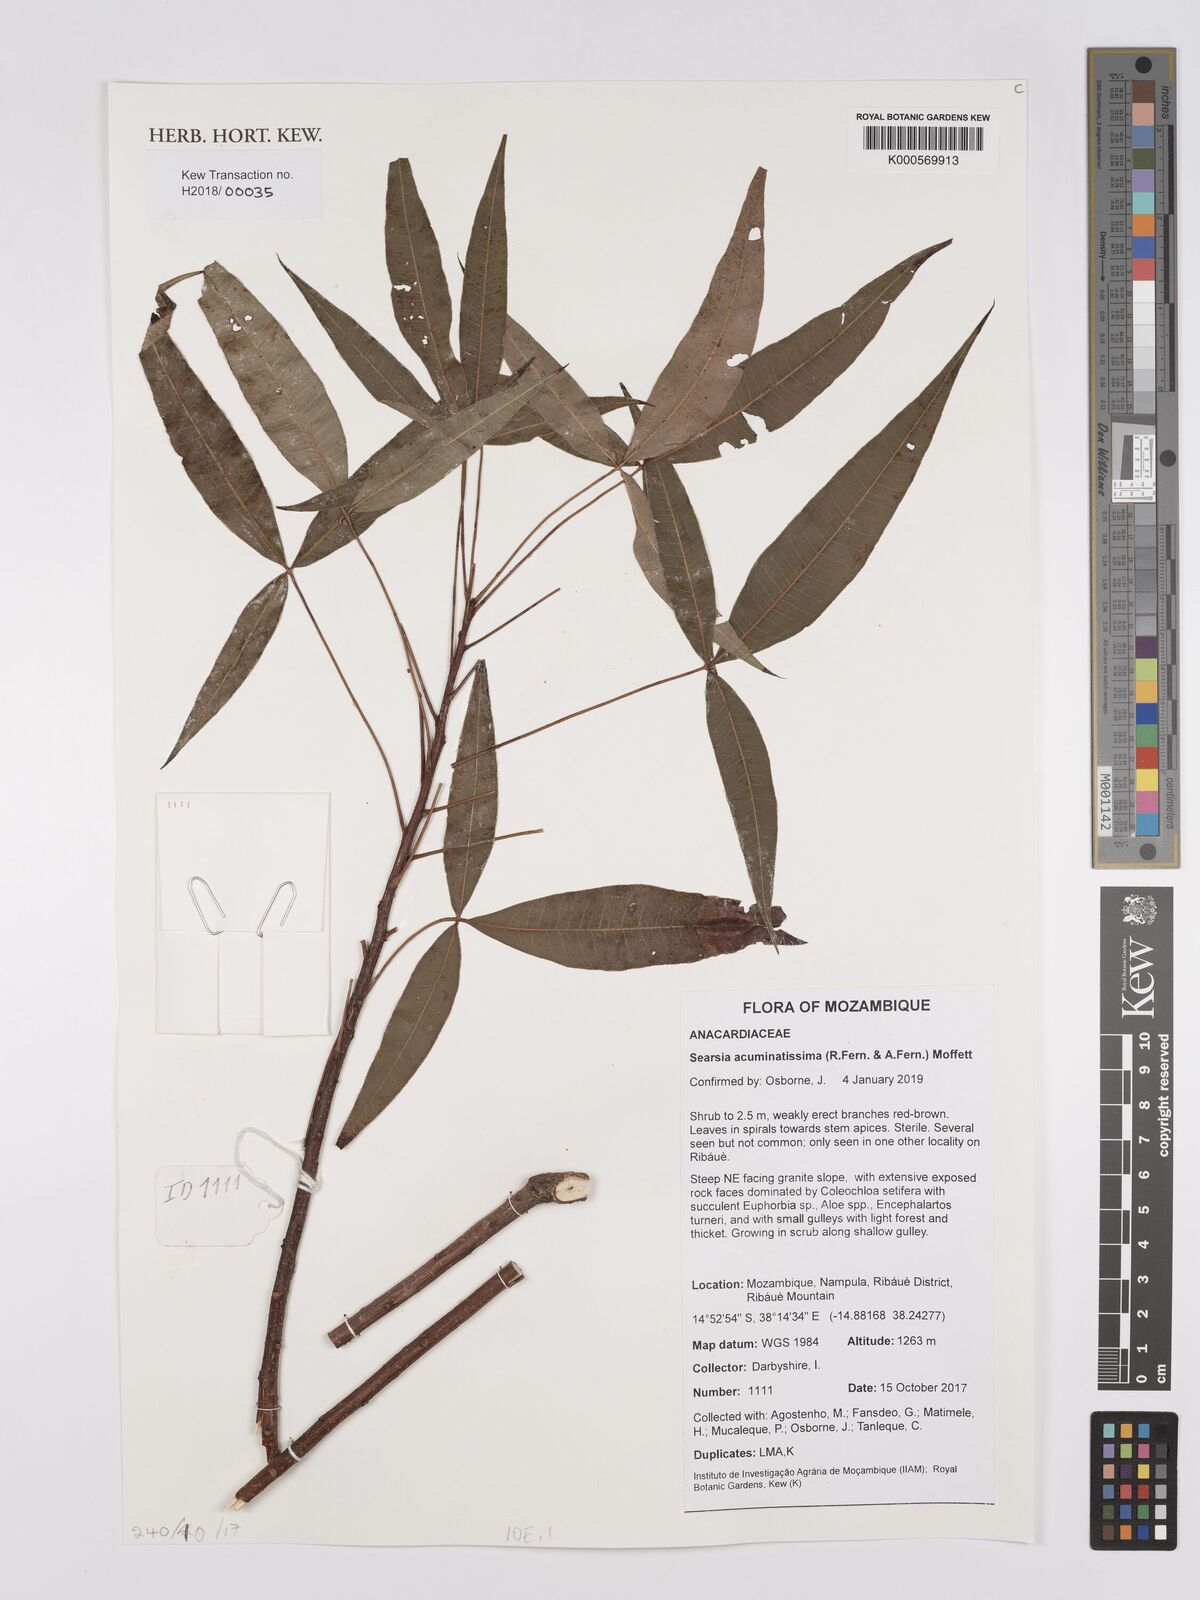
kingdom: Plantae
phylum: Tracheophyta
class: Magnoliopsida
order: Sapindales
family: Anacardiaceae
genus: Searsia
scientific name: Searsia acuminatissima
